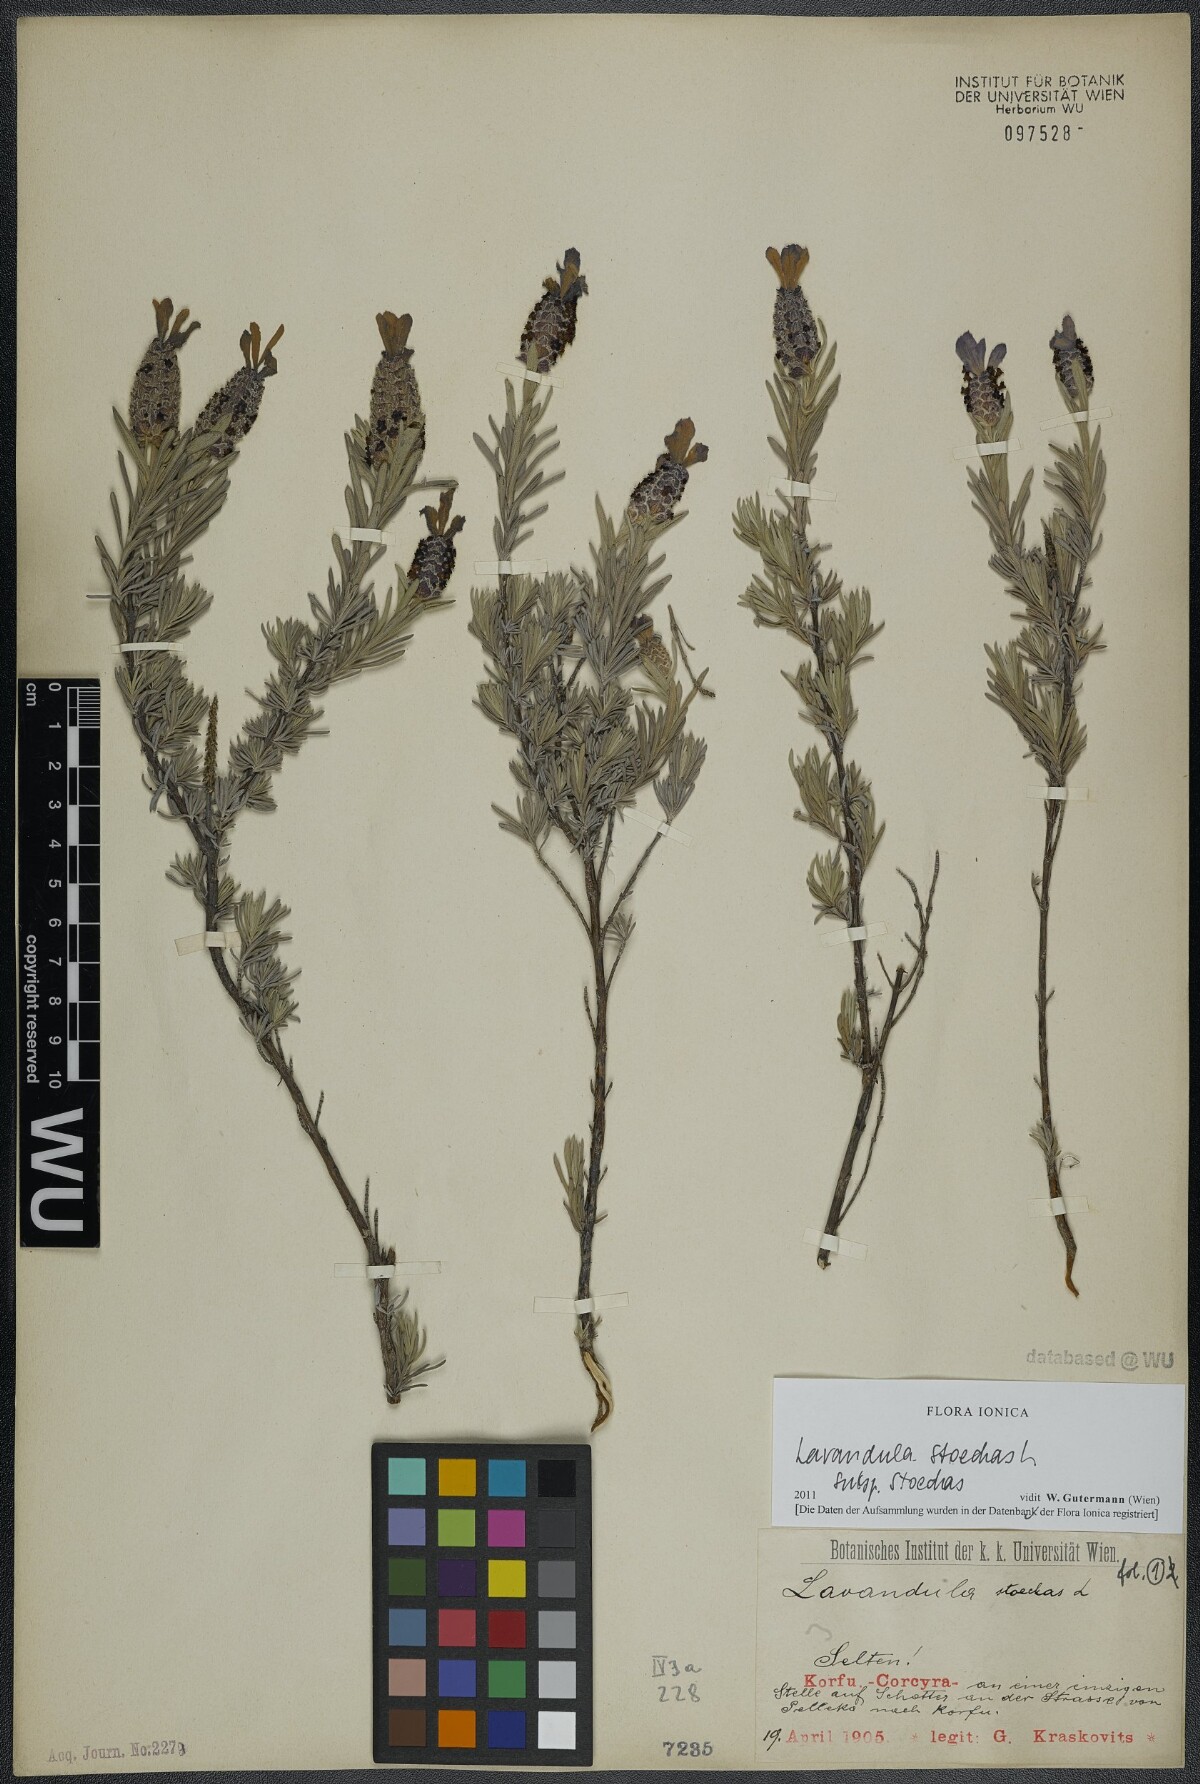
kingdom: Plantae
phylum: Tracheophyta
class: Magnoliopsida
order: Lamiales
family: Lamiaceae
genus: Lavandula
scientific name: Lavandula stoechas
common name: French lavender
